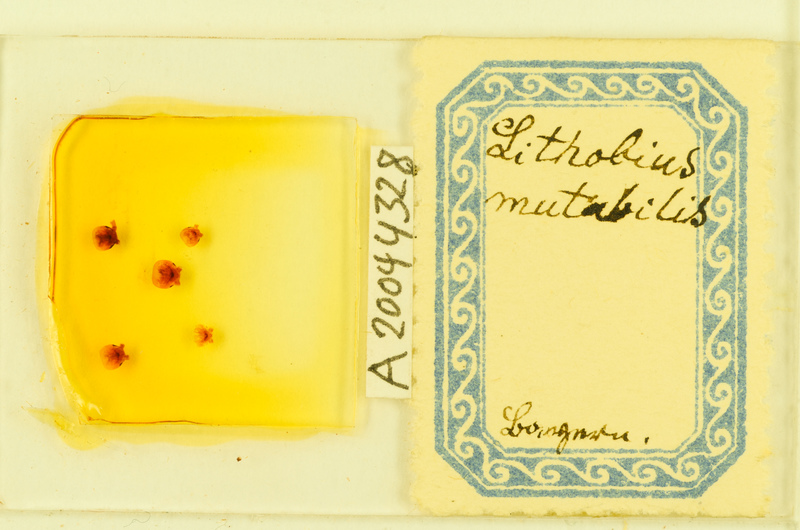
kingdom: Animalia
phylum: Arthropoda
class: Chilopoda
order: Lithobiomorpha
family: Lithobiidae
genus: Lithobius
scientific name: Lithobius mutabilis
